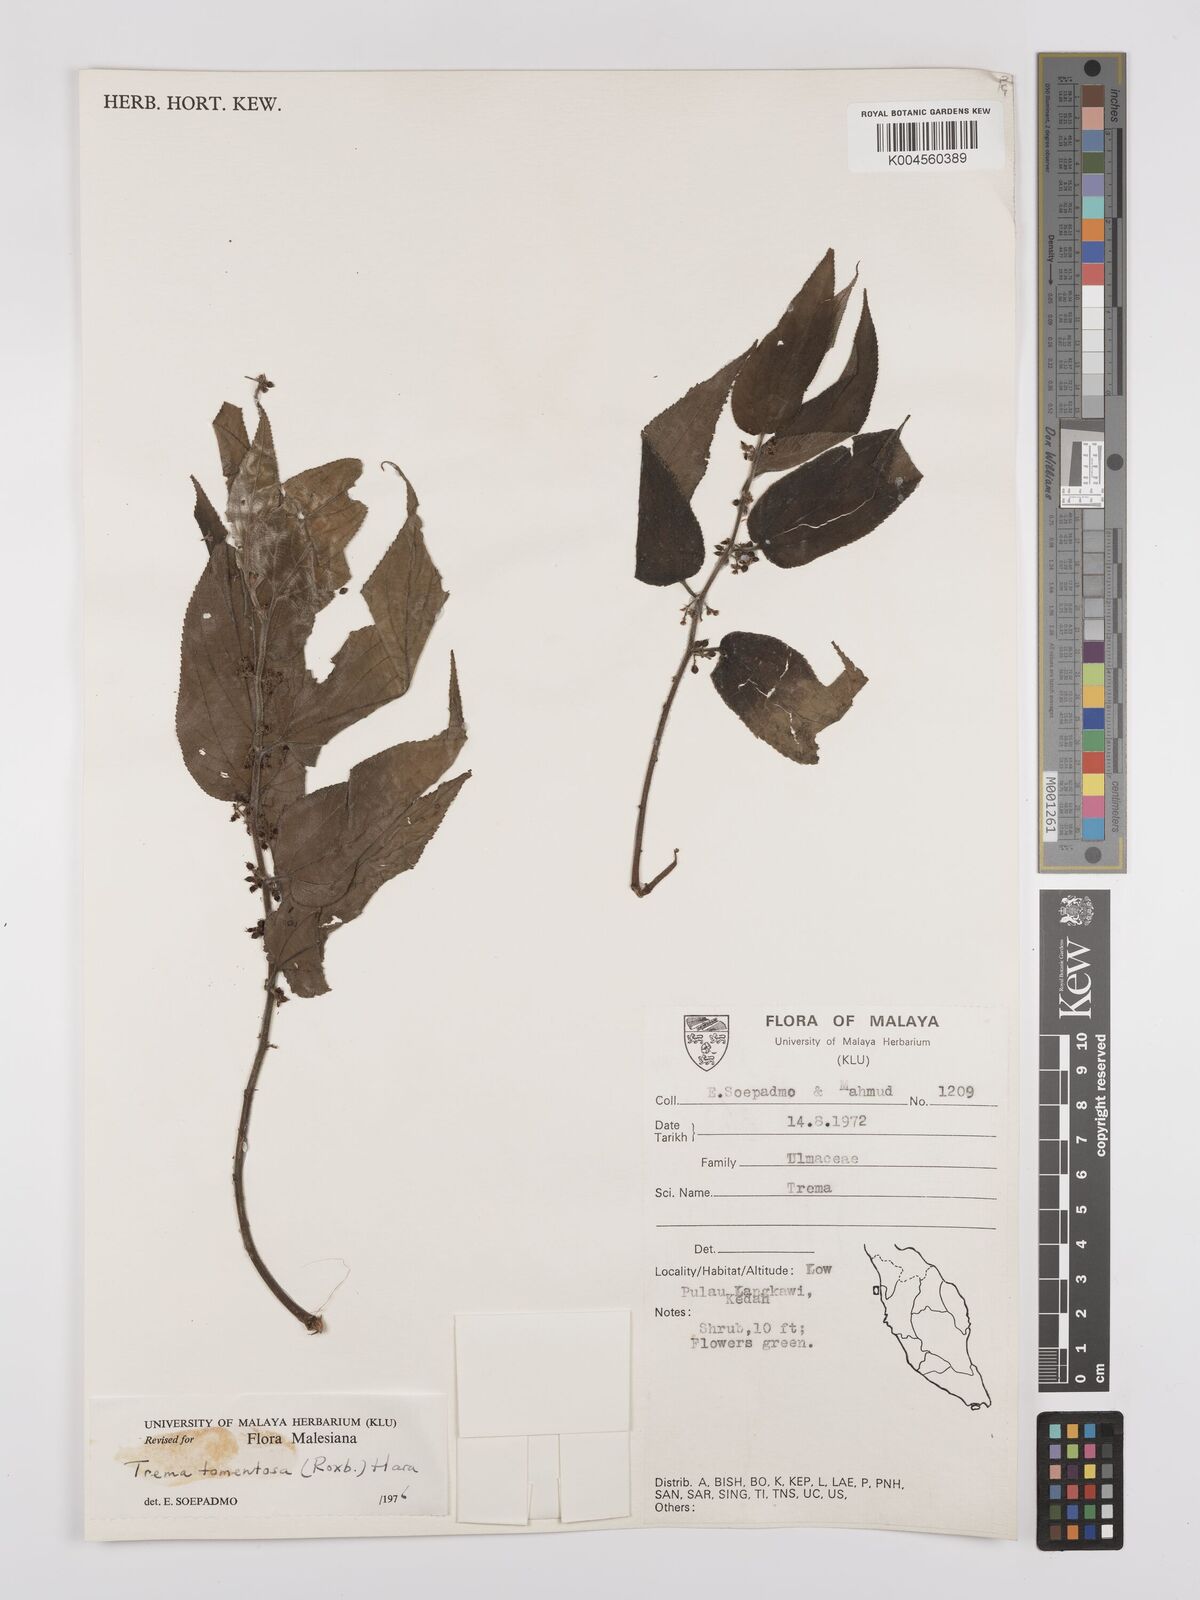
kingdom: Plantae
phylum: Tracheophyta
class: Magnoliopsida
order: Rosales
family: Cannabaceae
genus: Trema
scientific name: Trema tomentosum
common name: Peach-leaf-poisonbush
